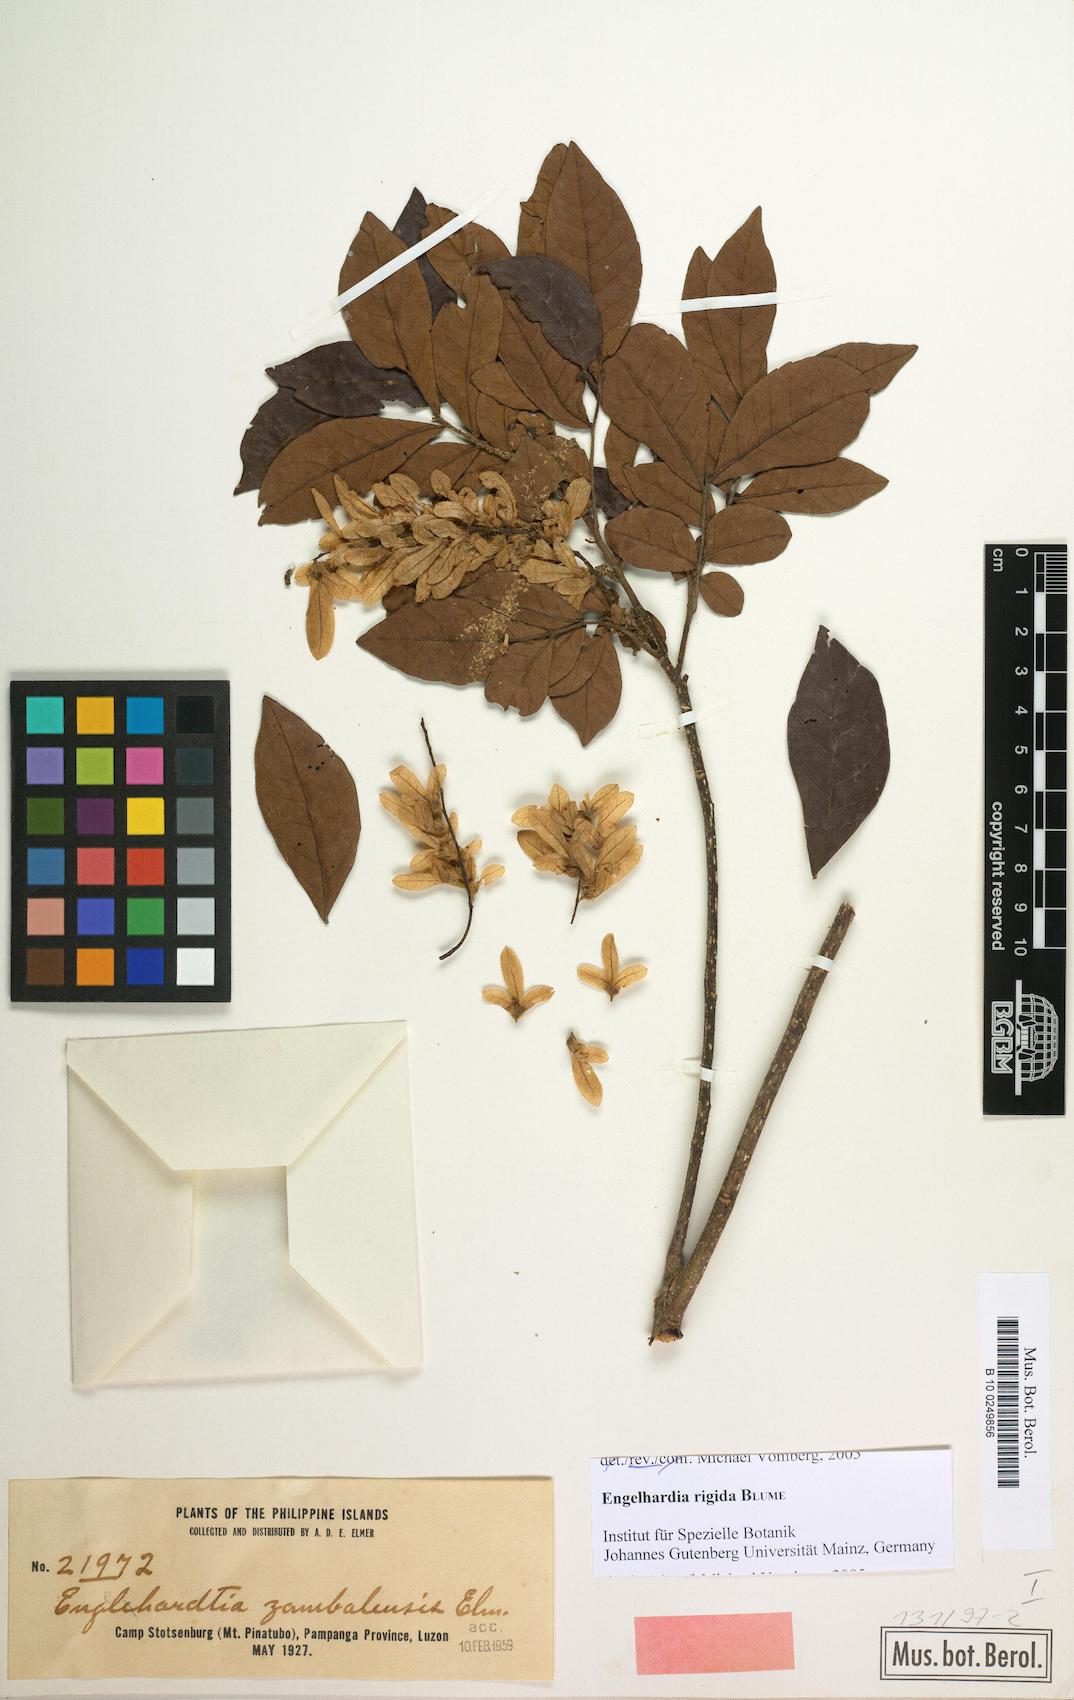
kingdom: Plantae
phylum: Tracheophyta
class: Magnoliopsida
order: Fagales
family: Juglandaceae
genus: Engelhardtia
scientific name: Engelhardtia rigida
